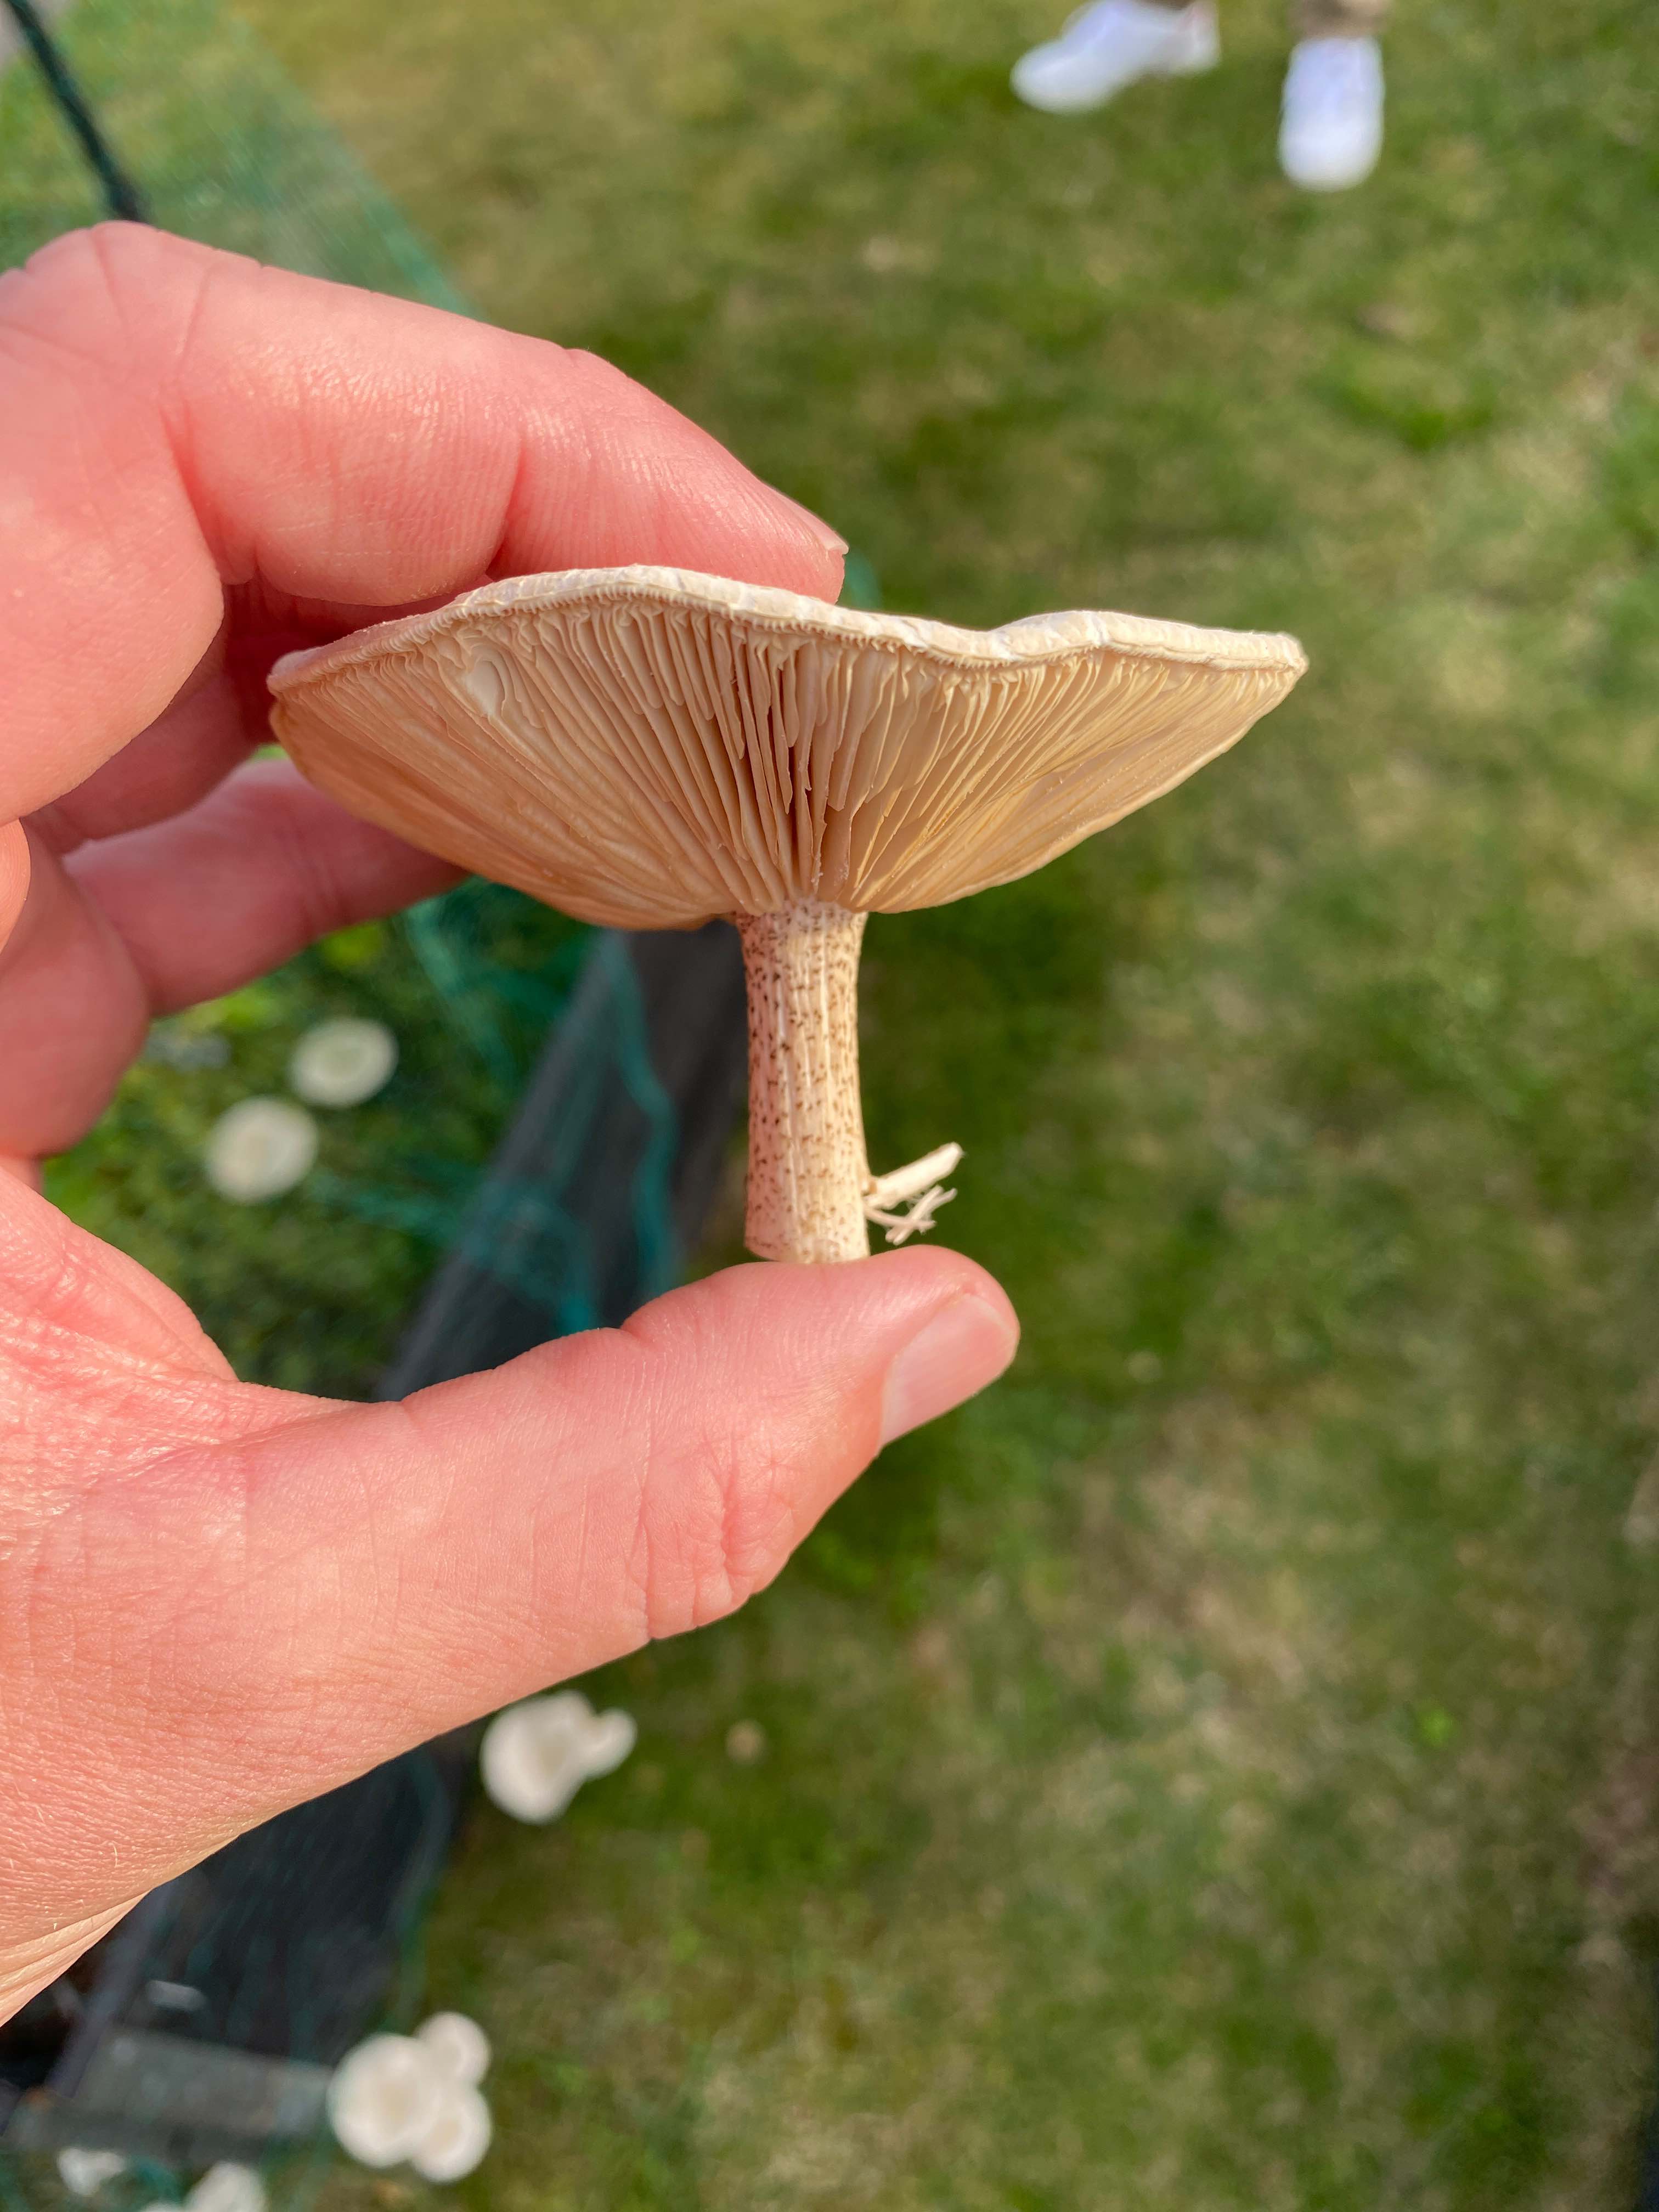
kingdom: Fungi
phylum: Basidiomycota
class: Agaricomycetes
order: Agaricales
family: Tricholomataceae
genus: Melanoleuca
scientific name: Melanoleuca verrucipes
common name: rufodet munkehat
